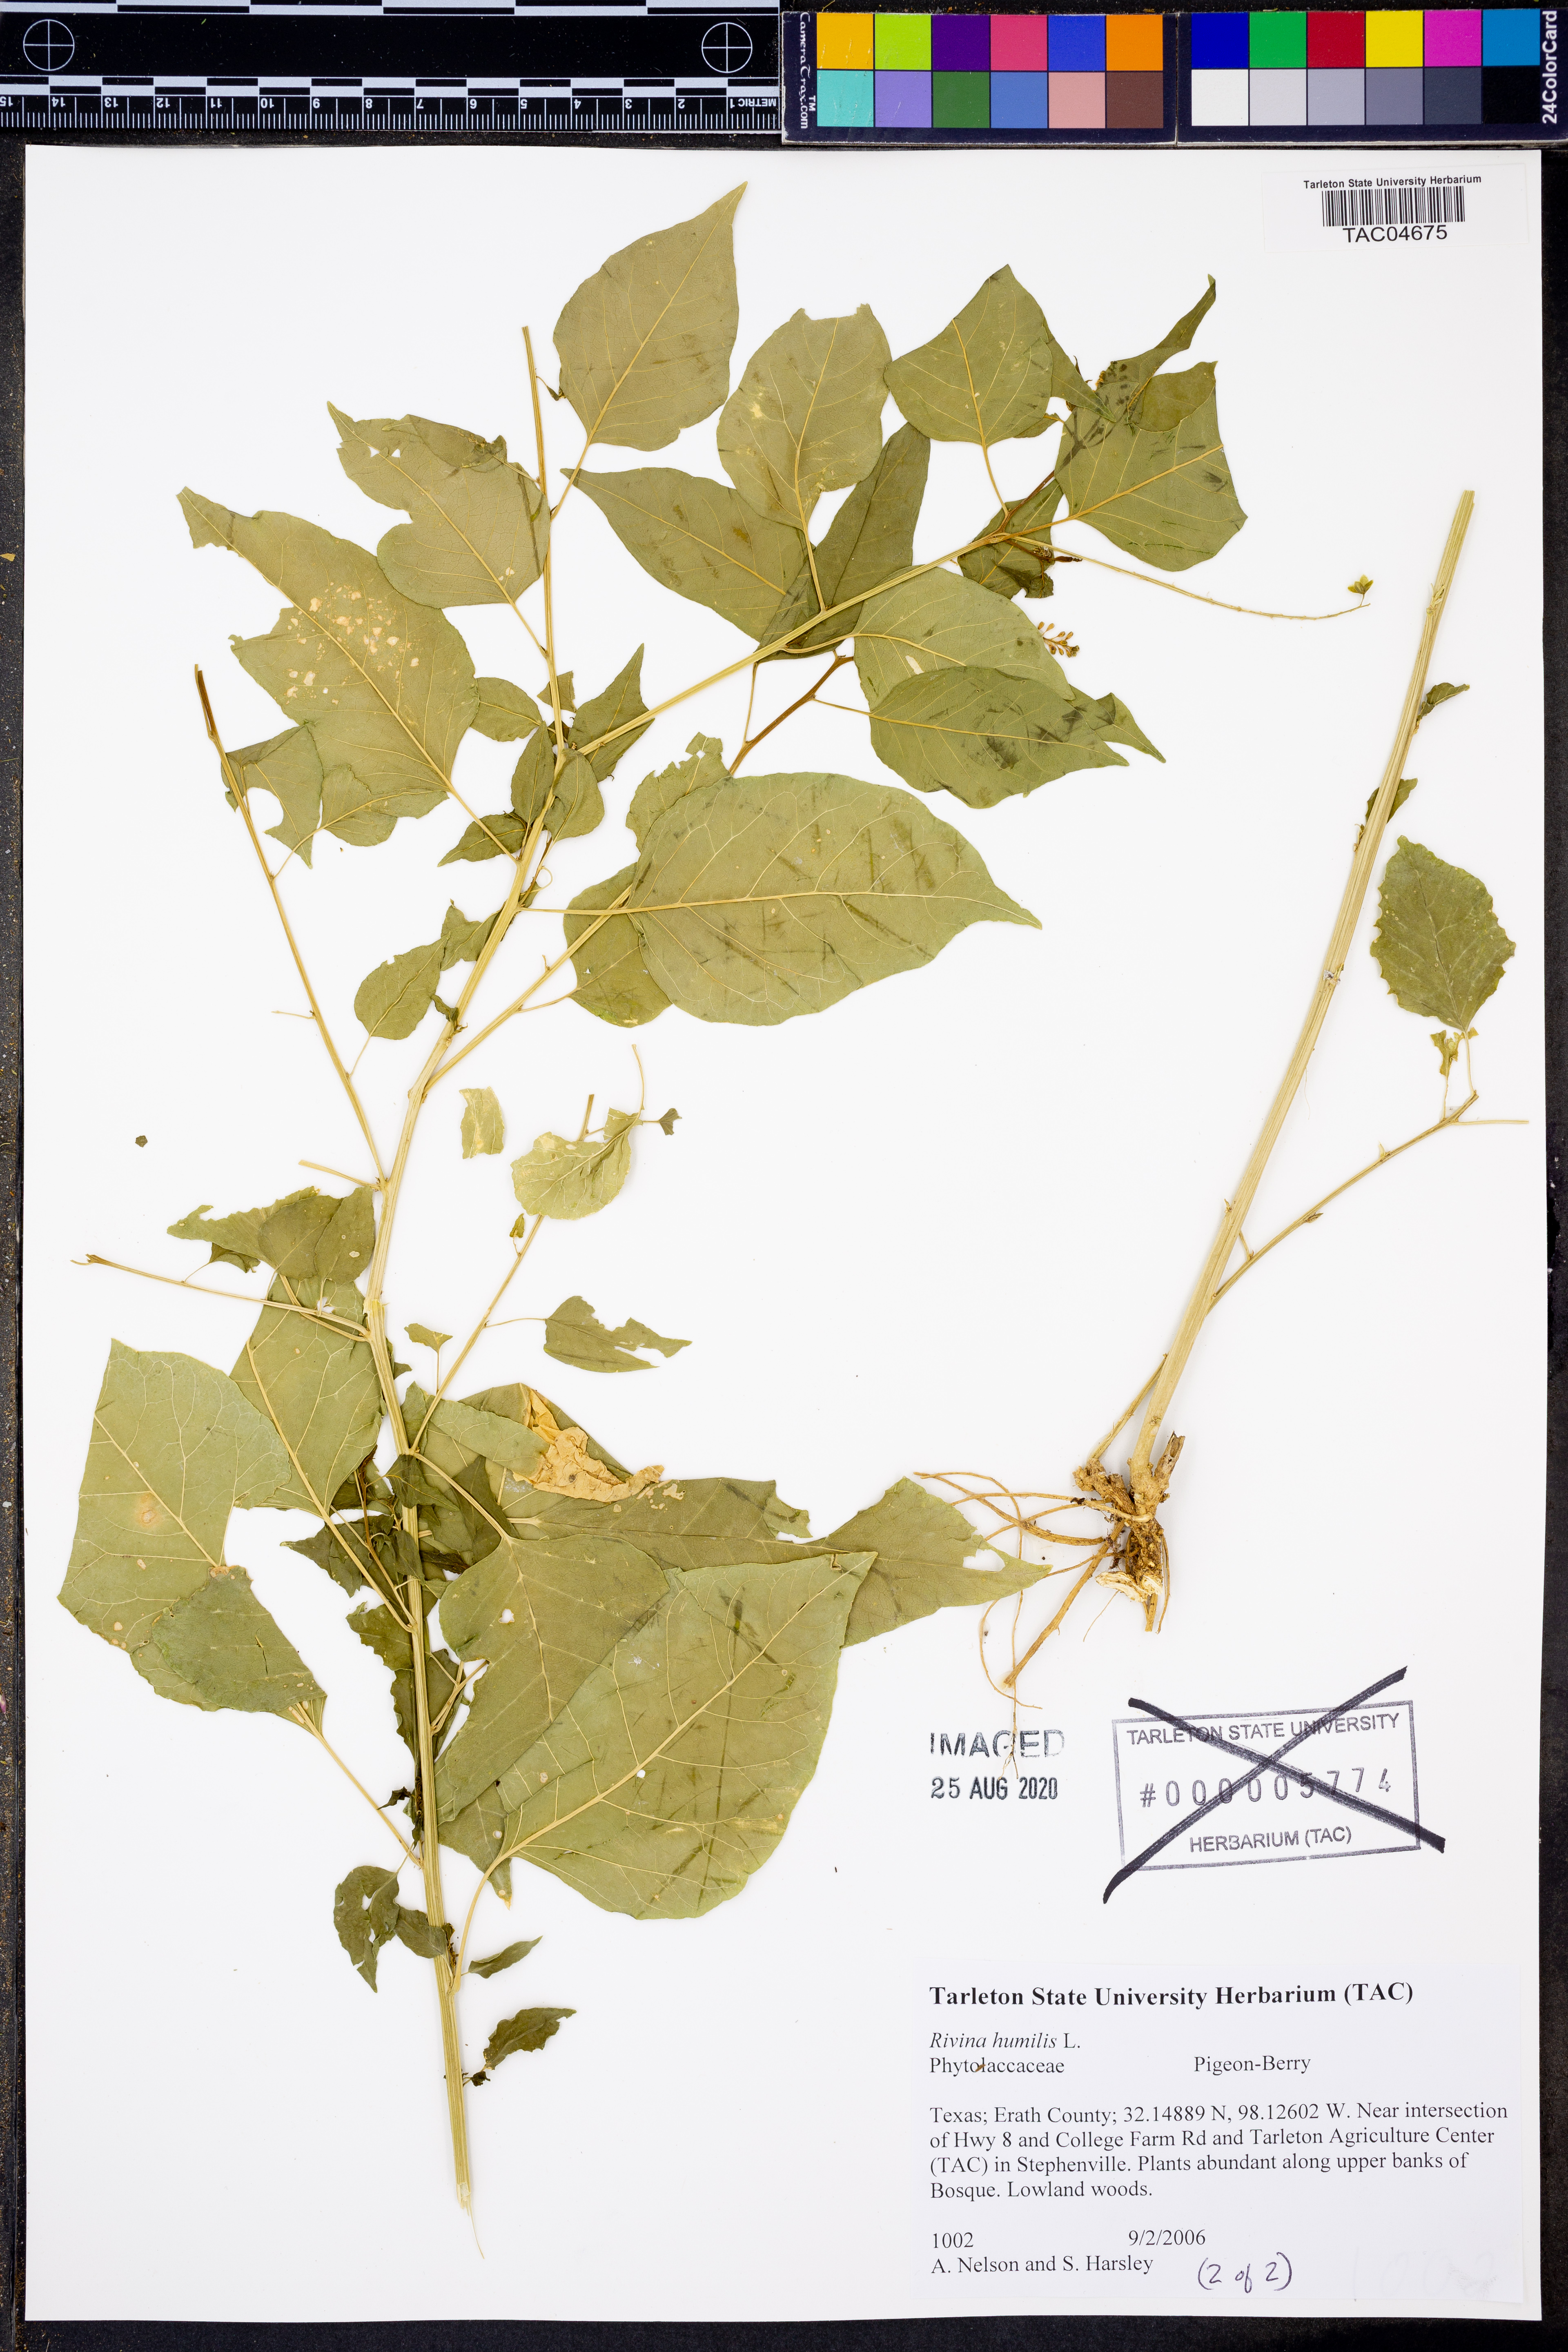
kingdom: Plantae
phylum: Tracheophyta
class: Magnoliopsida
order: Caryophyllales
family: Phytolaccaceae
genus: Rivina
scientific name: Rivina humilis
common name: Rougeplant
